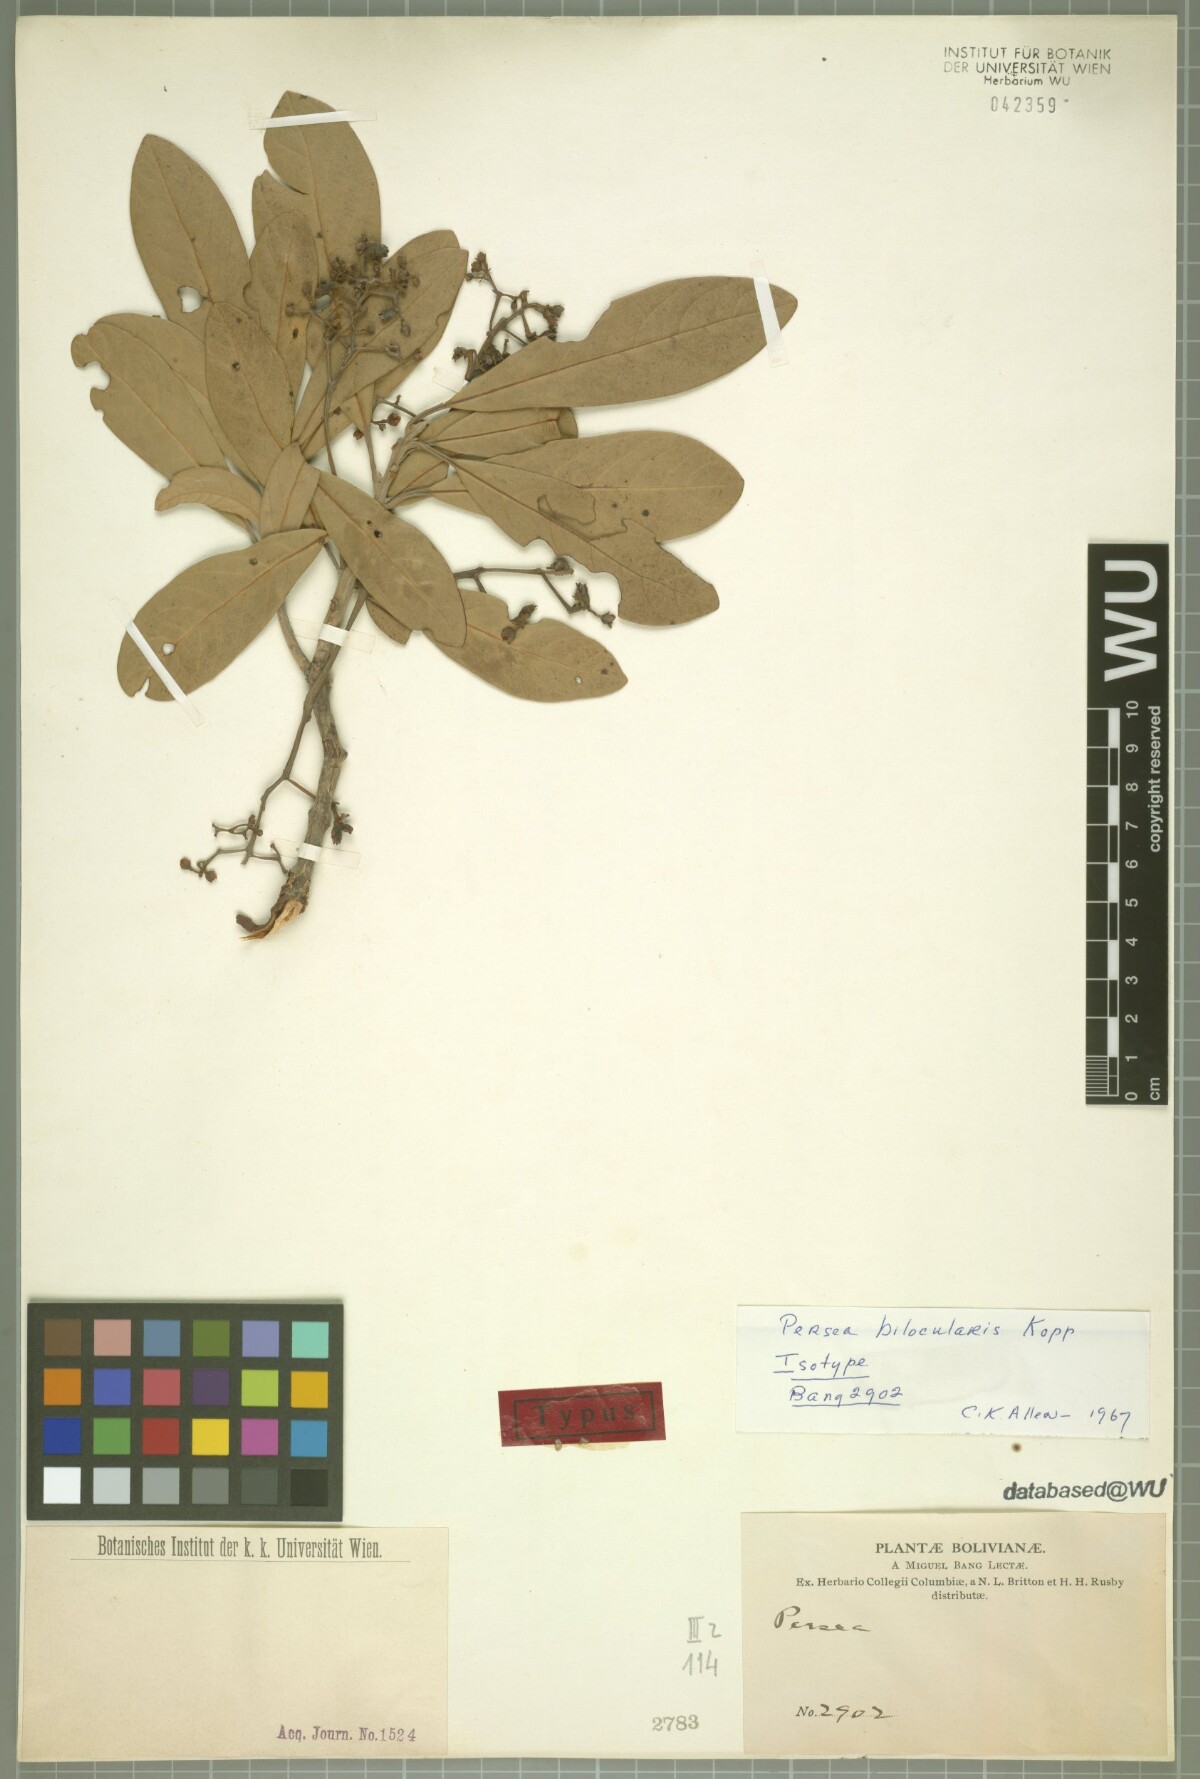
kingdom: Plantae
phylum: Tracheophyta
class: Magnoliopsida
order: Laurales
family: Lauraceae
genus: Persea
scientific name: Persea bilocularis
